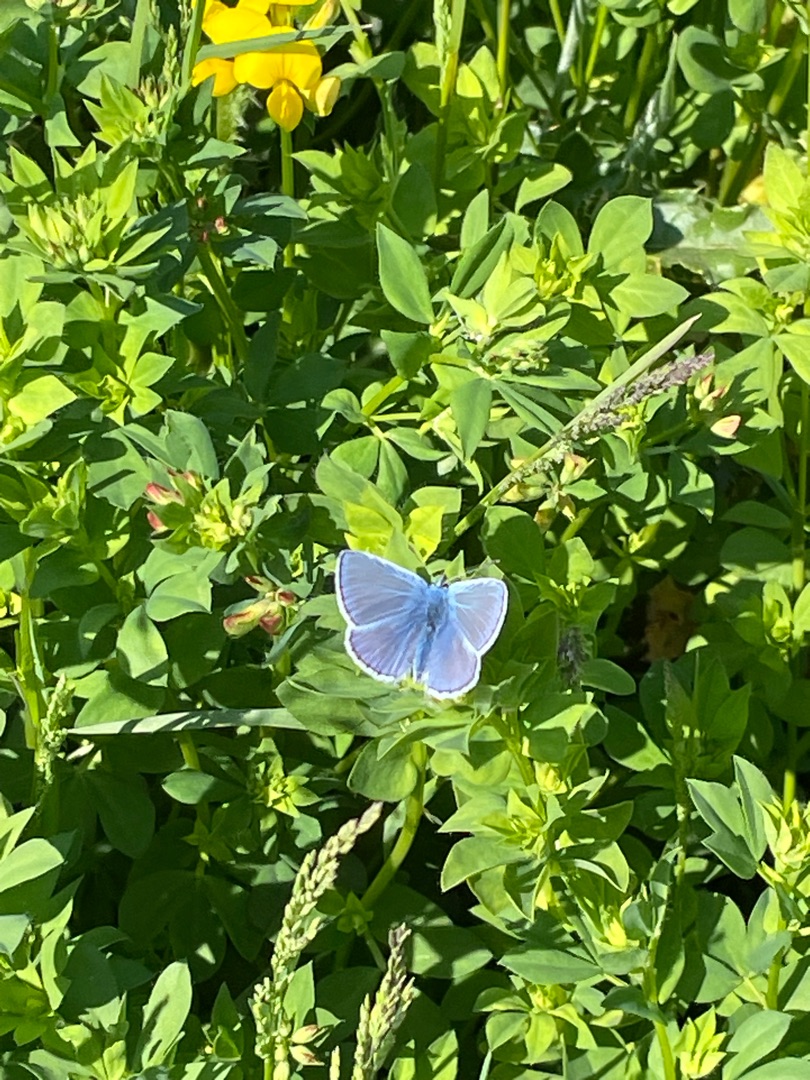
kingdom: Animalia
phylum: Arthropoda
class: Insecta
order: Lepidoptera
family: Lycaenidae
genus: Polyommatus
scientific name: Polyommatus icarus
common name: Almindelig blåfugl
